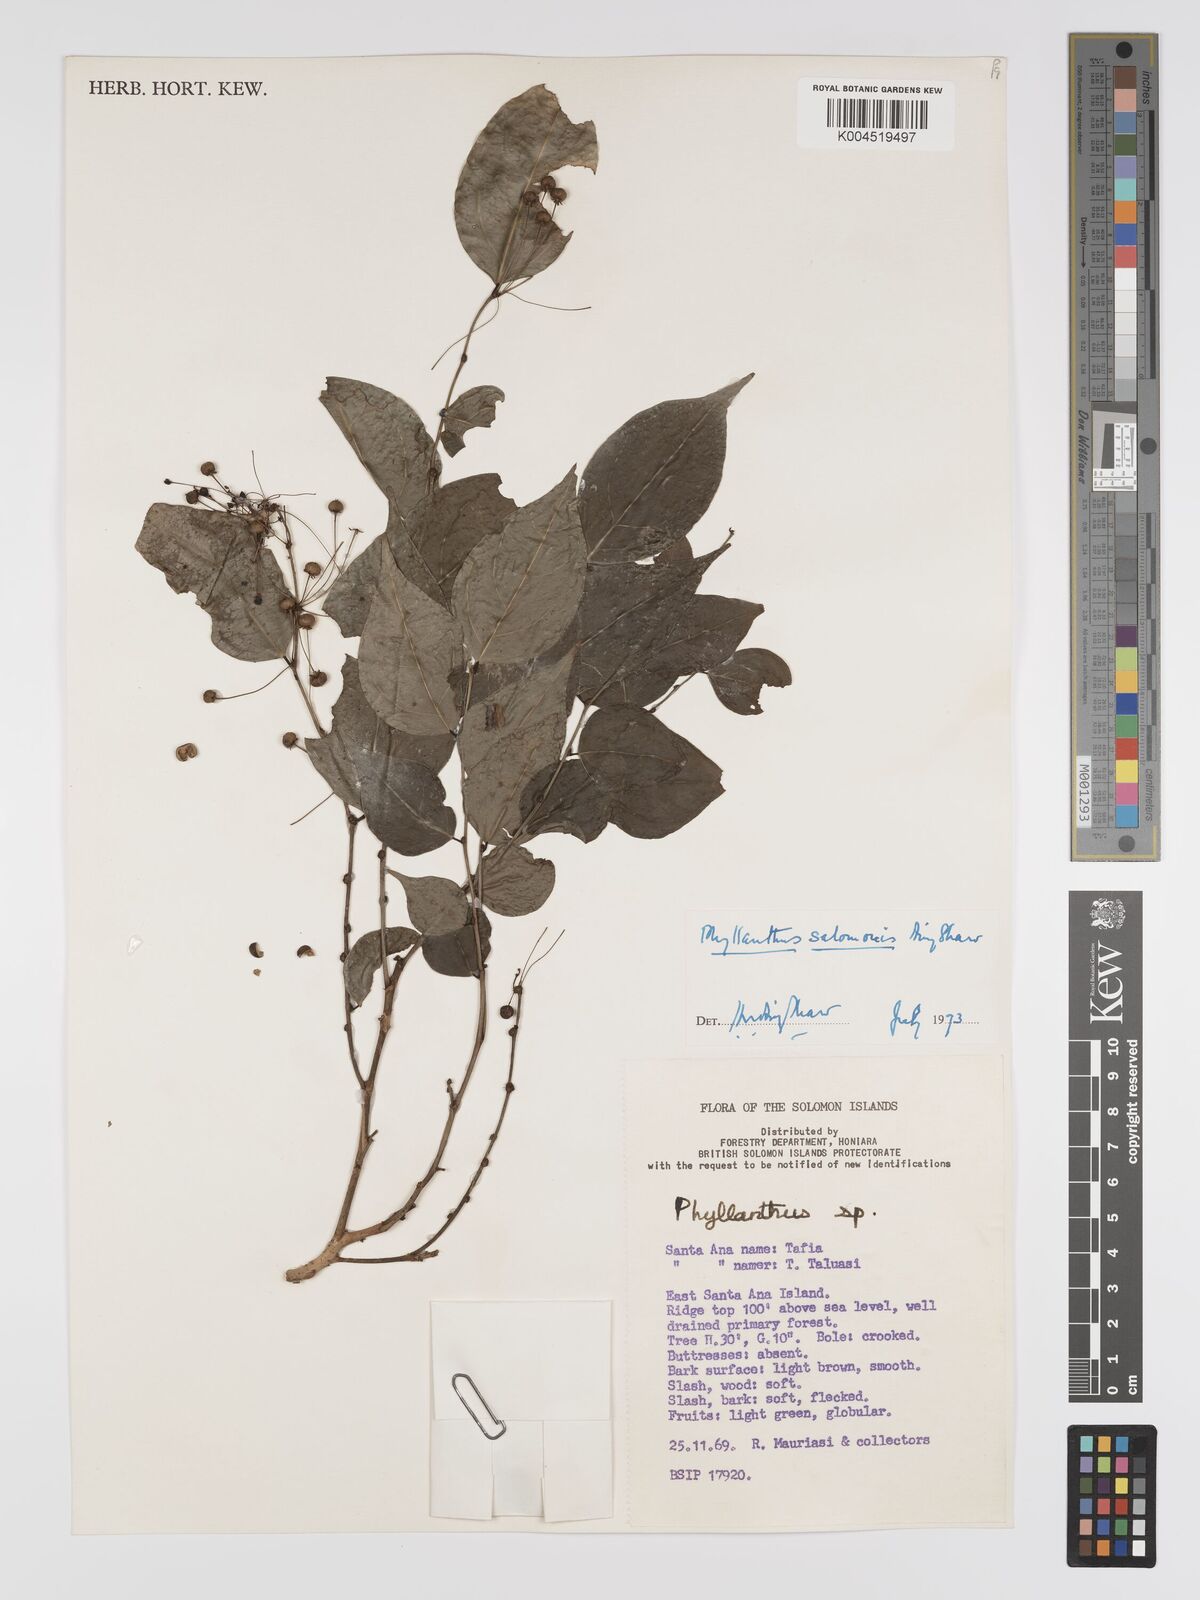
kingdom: Plantae
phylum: Tracheophyta
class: Magnoliopsida
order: Malpighiales
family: Phyllanthaceae
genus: Phyllanthus
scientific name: Phyllanthus salomonis
